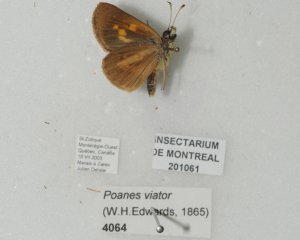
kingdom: Animalia
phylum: Arthropoda
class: Insecta
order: Lepidoptera
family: Hesperiidae
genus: Poanes
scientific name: Poanes viator
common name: Broad-winged Skipper
